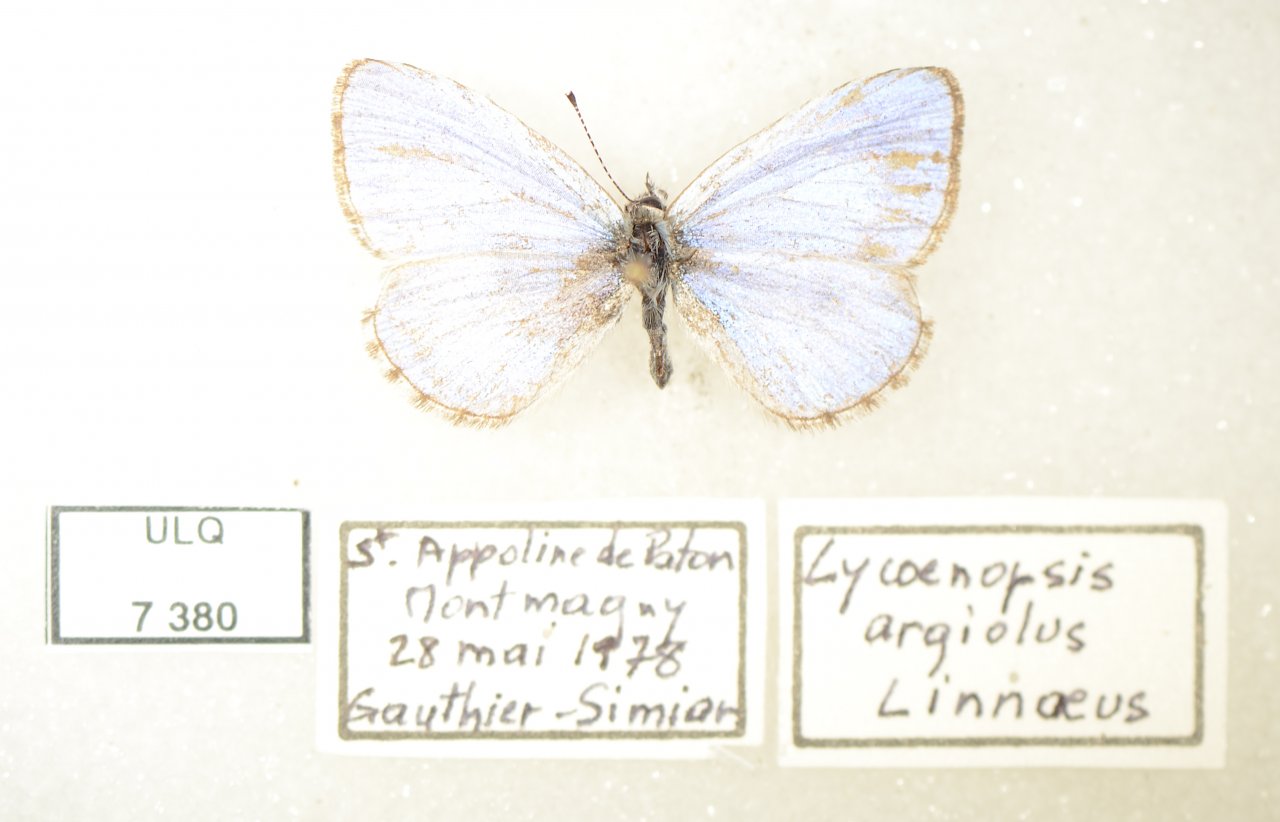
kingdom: Animalia
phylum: Arthropoda
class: Insecta
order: Lepidoptera
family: Lycaenidae
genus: Celastrina
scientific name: Celastrina lucia
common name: Northern Spring Azure
